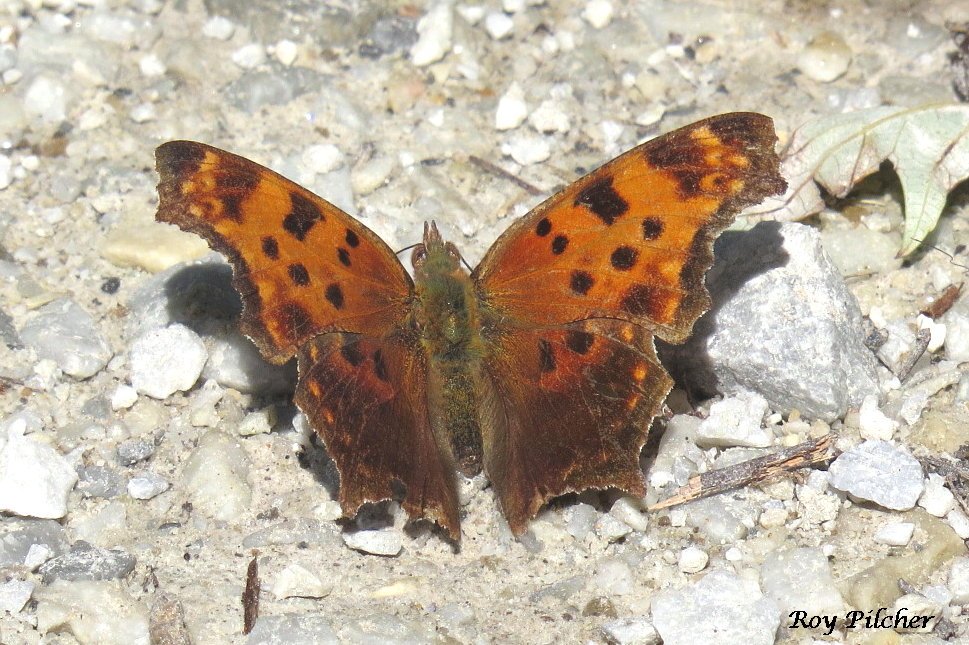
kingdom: Animalia
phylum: Arthropoda
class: Insecta
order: Lepidoptera
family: Nymphalidae
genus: Polygonia
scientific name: Polygonia comma
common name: Eastern Comma
